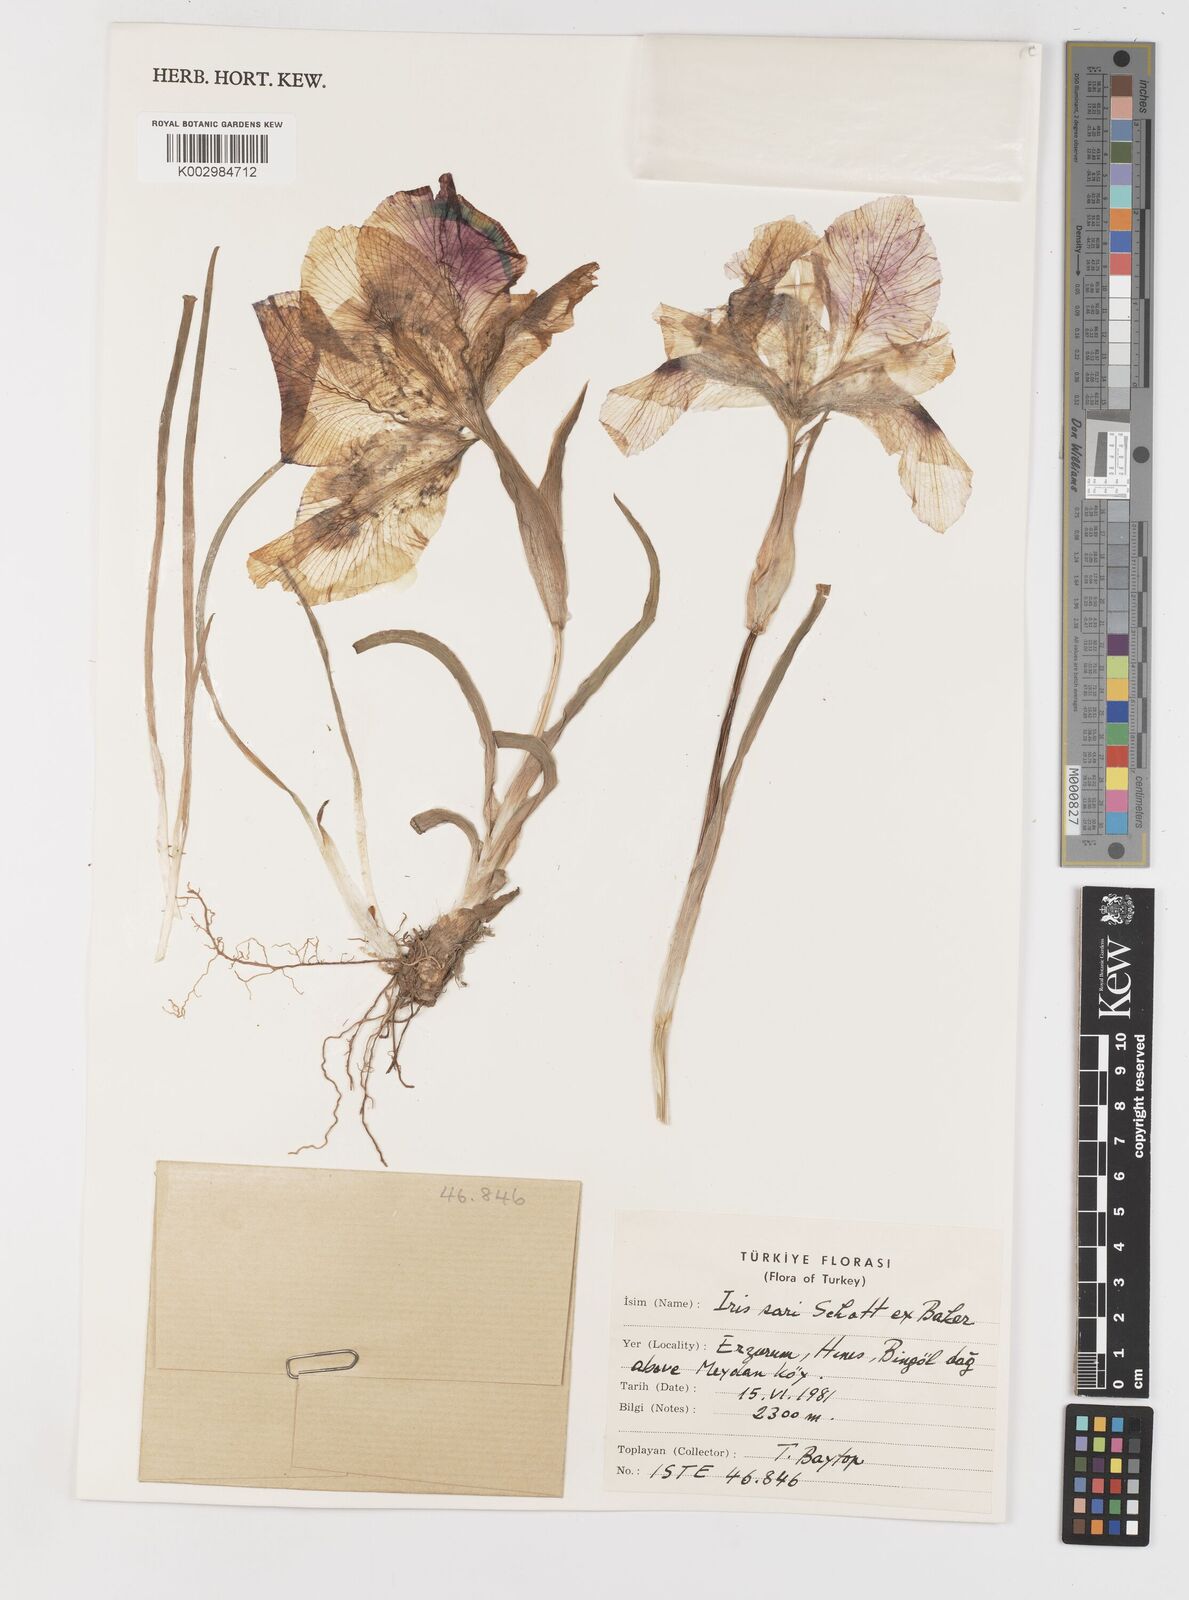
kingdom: Plantae
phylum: Tracheophyta
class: Liliopsida
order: Asparagales
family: Iridaceae
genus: Iris
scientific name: Iris sari
